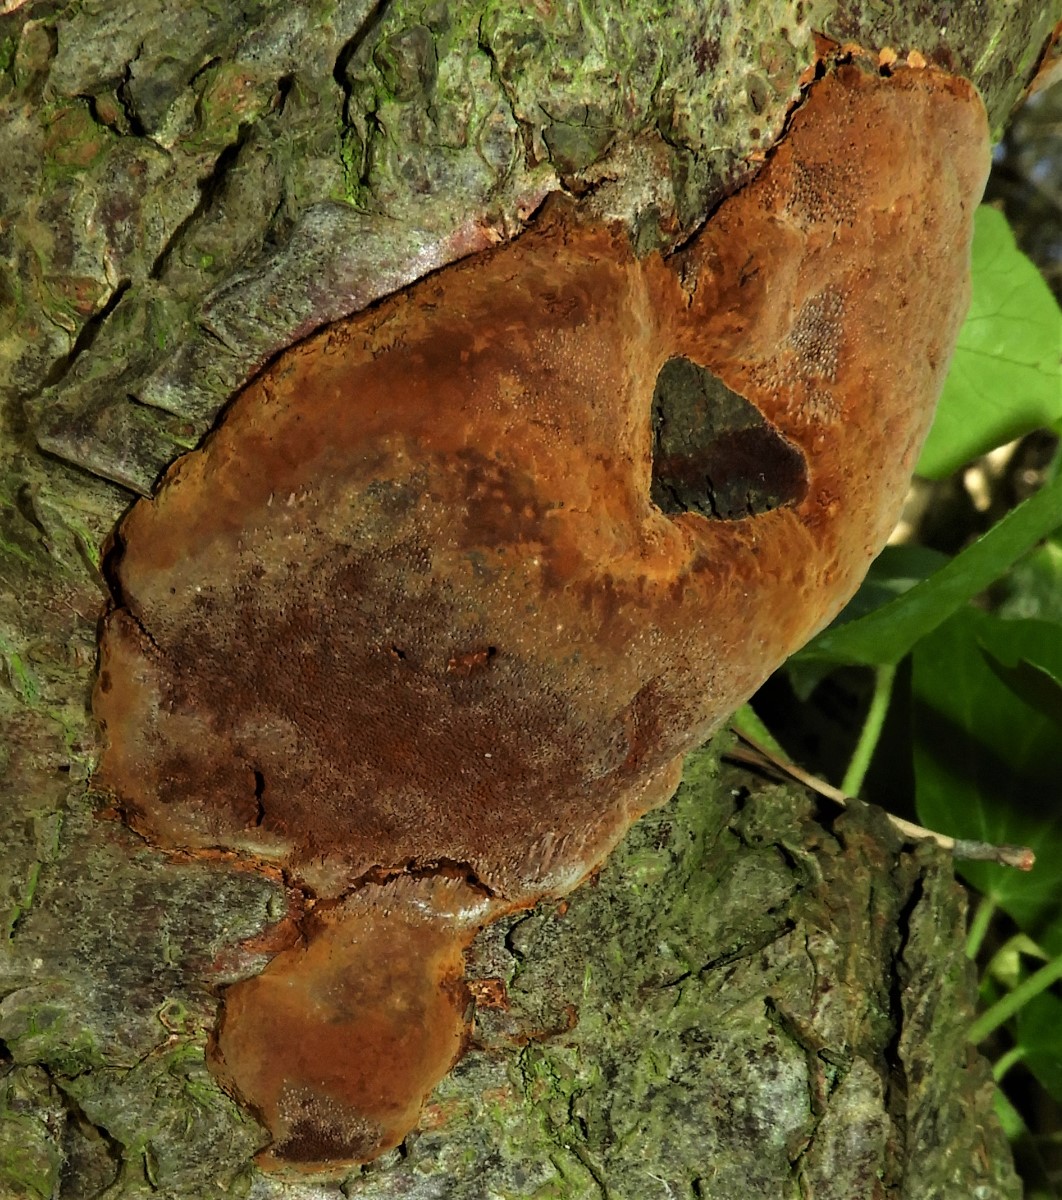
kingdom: Fungi
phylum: Basidiomycota
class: Agaricomycetes
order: Hymenochaetales
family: Hymenochaetaceae
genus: Phellinus
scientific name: Phellinus pomaceus
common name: blomme-ildporesvamp
